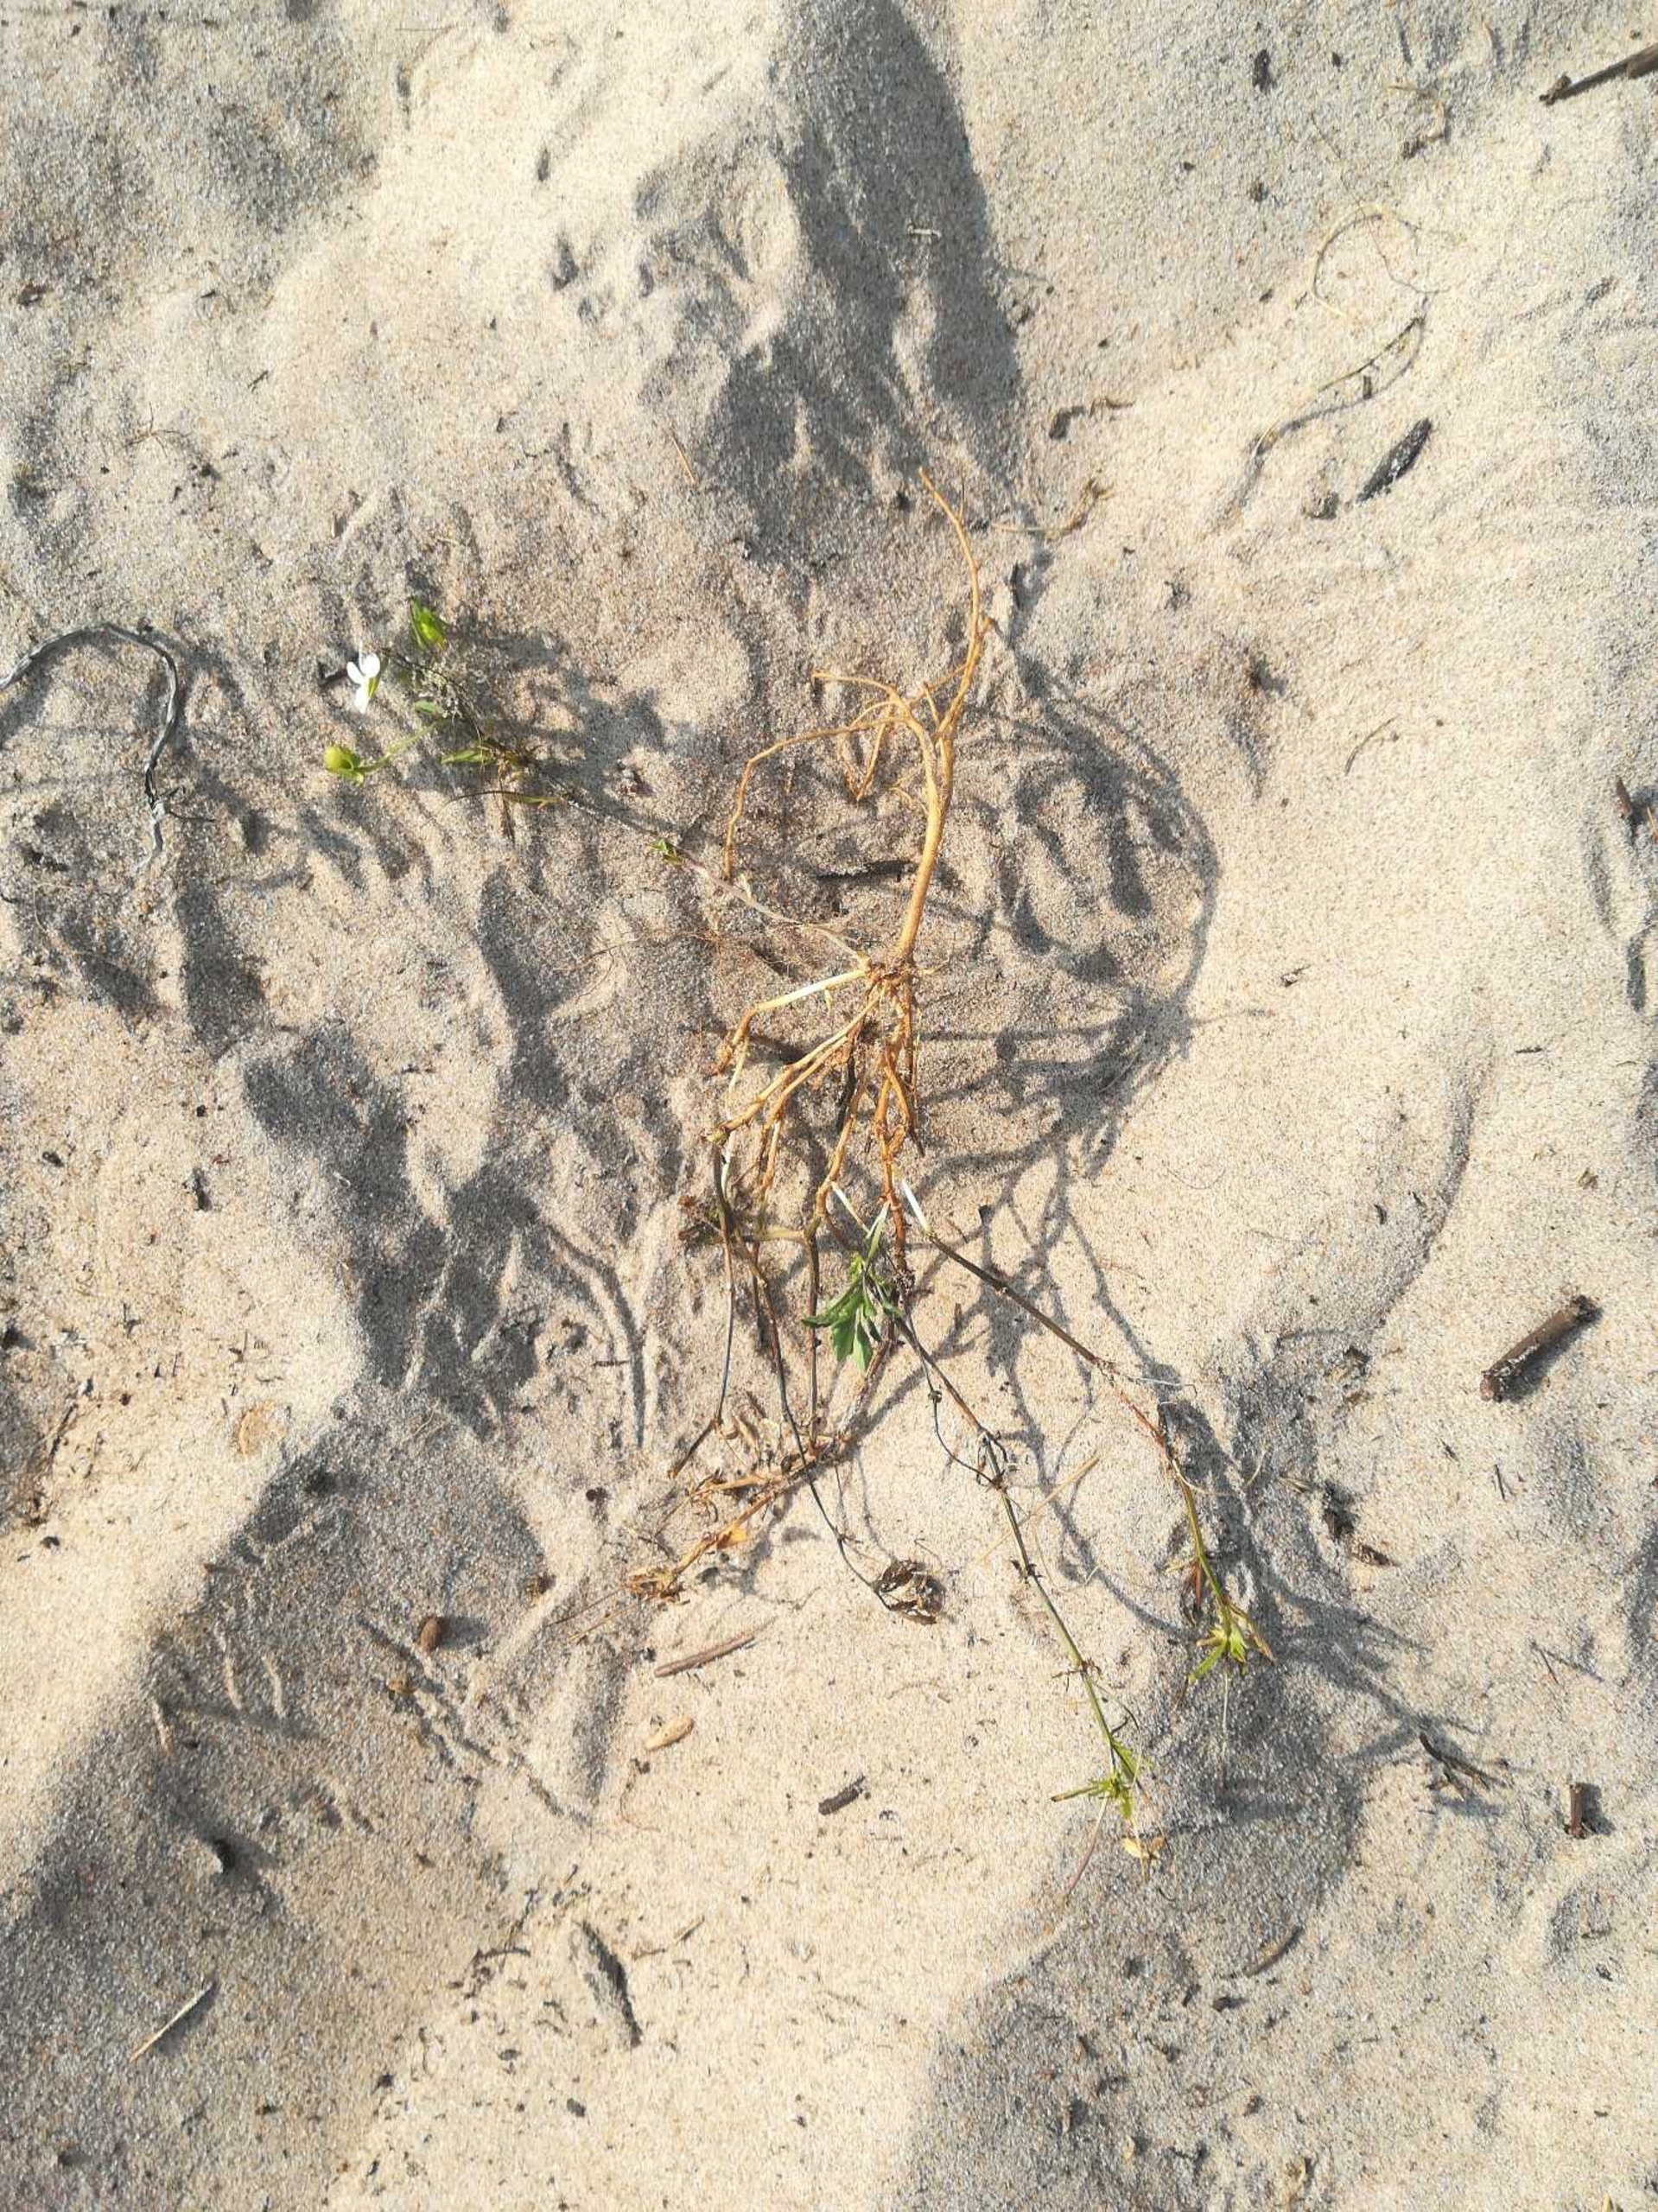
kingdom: Plantae
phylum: Tracheophyta
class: Magnoliopsida
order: Malpighiales
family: Violaceae
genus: Viola
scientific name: Viola tricolor
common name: Klit-stedmoderblomst
